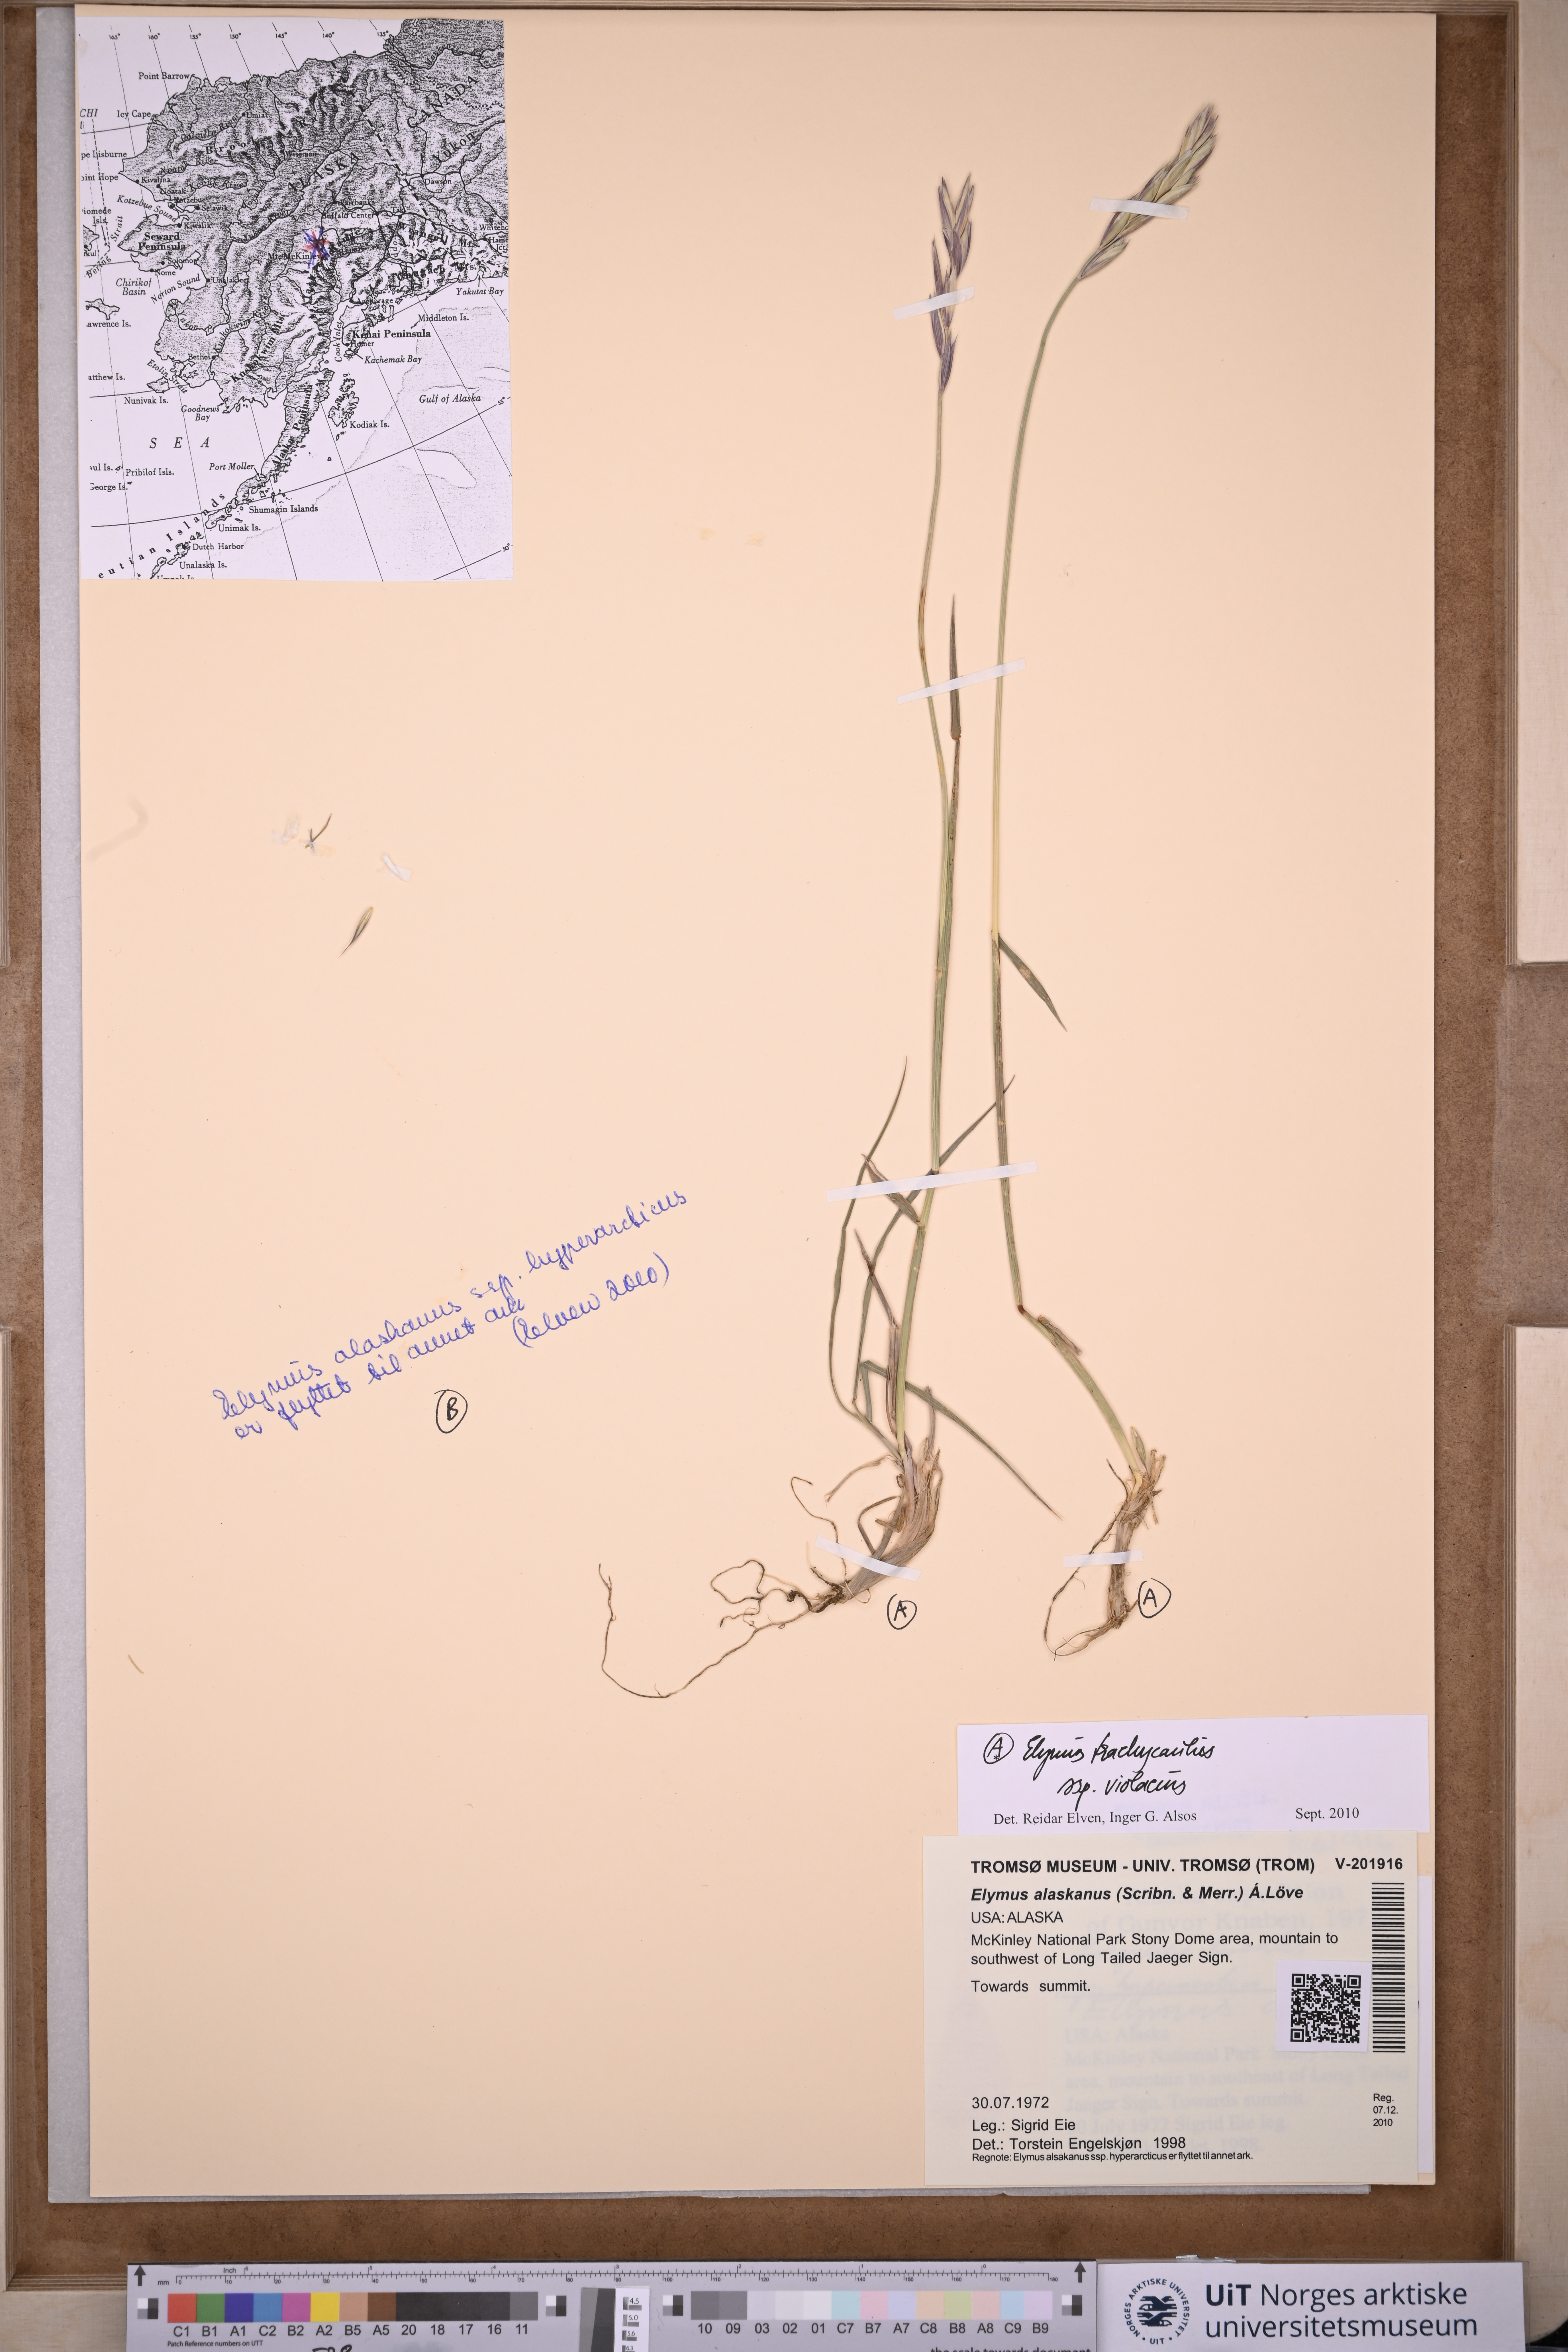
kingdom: Plantae
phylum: Tracheophyta
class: Liliopsida
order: Poales
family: Poaceae
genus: Elymus
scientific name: Elymus violaceus
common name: Arctic wheatgrass
